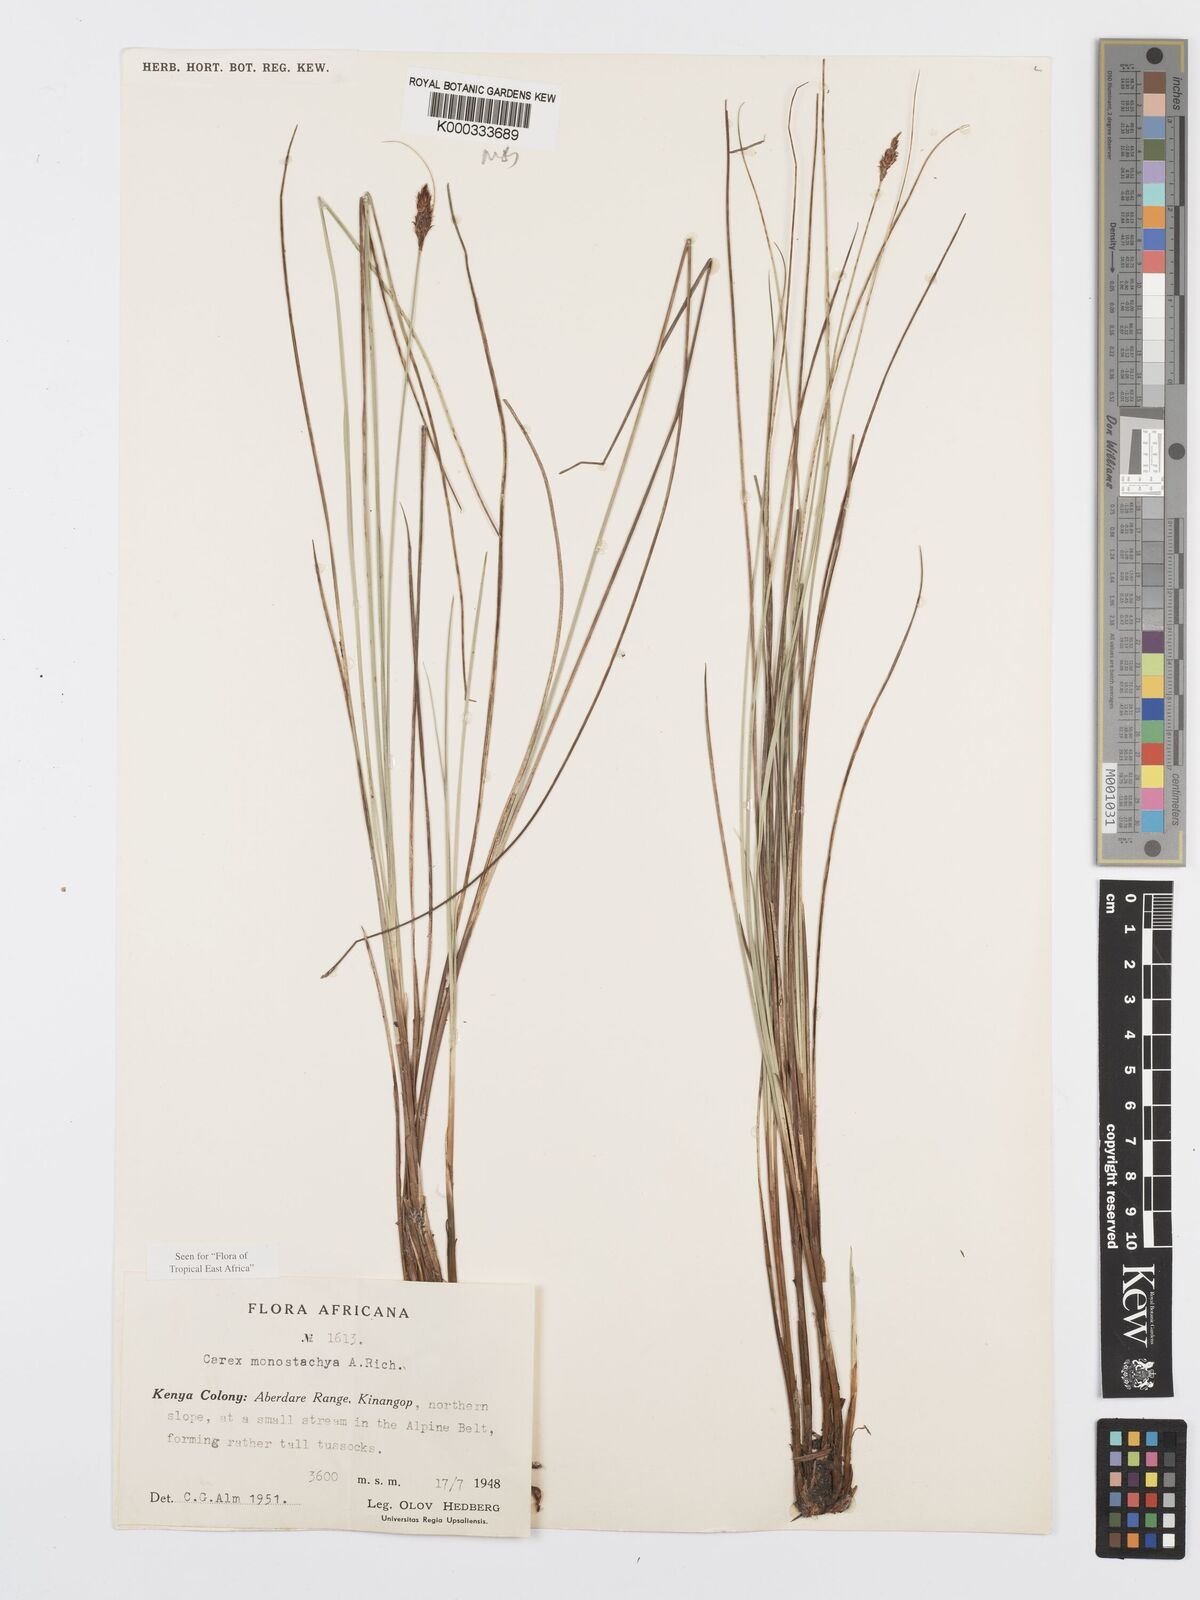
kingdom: Plantae
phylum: Tracheophyta
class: Liliopsida
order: Poales
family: Cyperaceae
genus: Carex
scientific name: Carex monostachya
